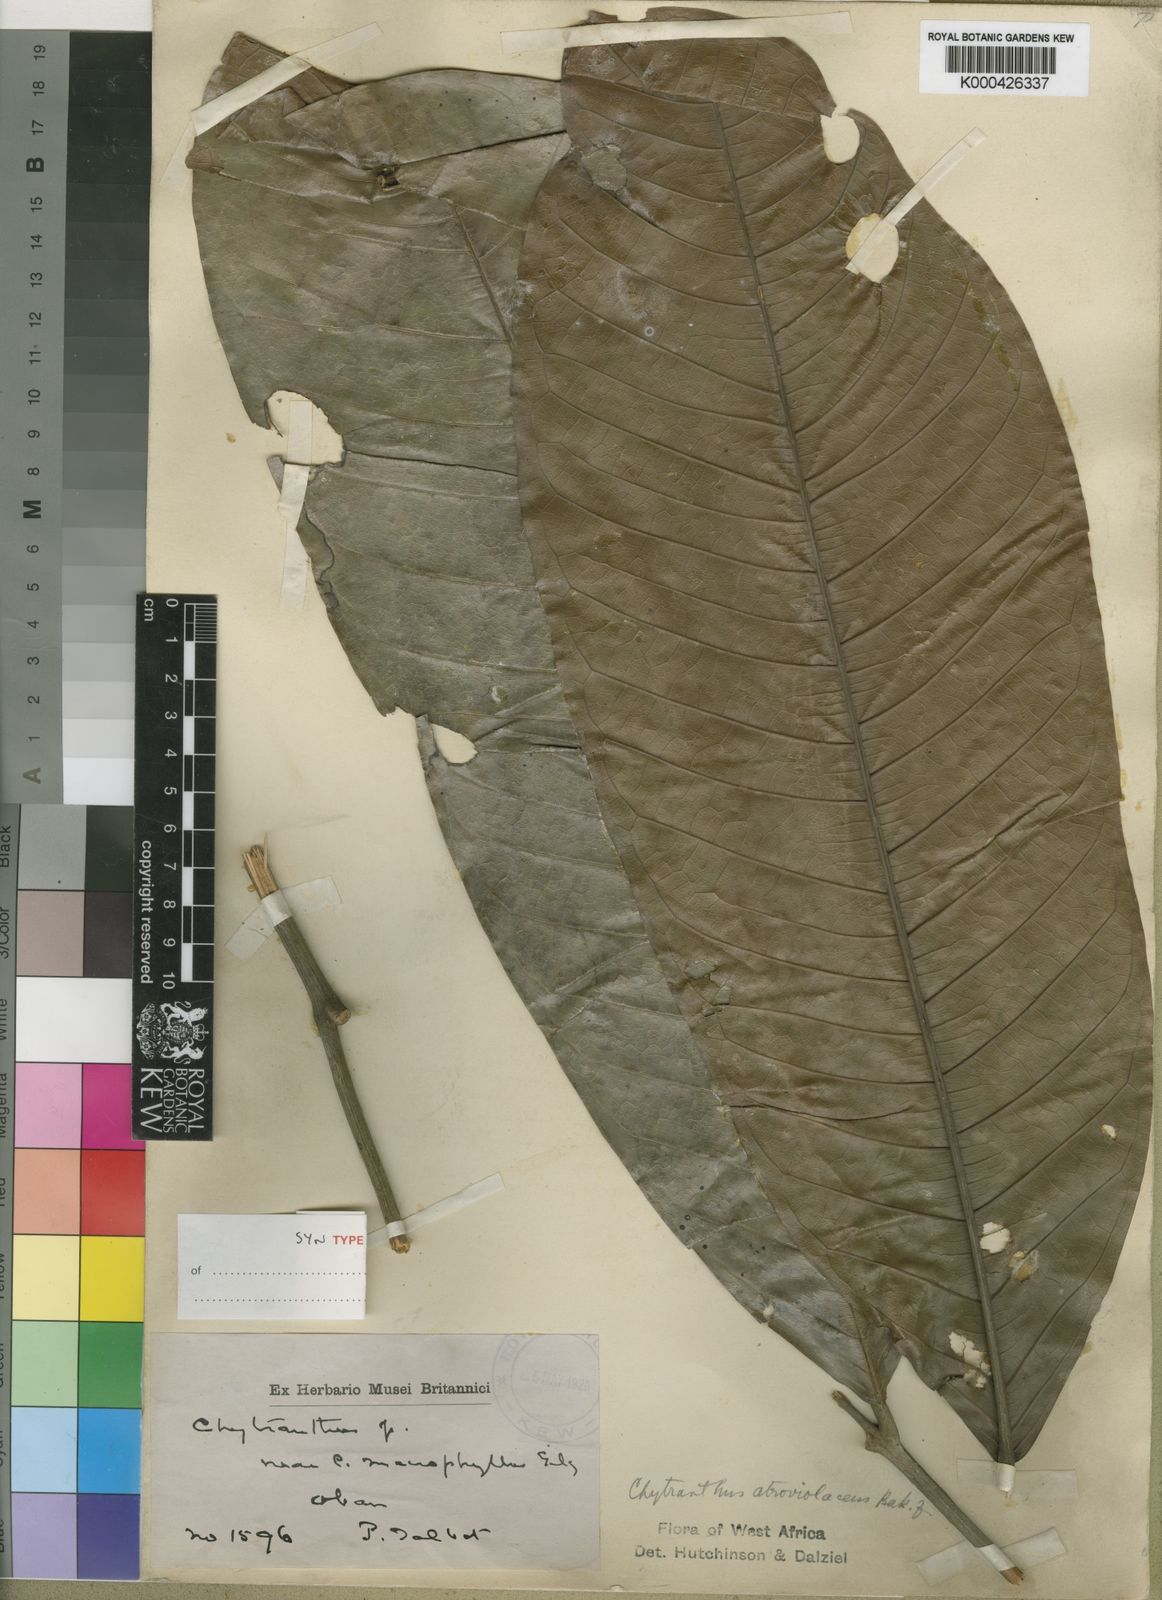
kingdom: Plantae
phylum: Tracheophyta
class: Magnoliopsida
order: Sapindales
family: Sapindaceae
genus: Chytranthus
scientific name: Chytranthus atroviolaceus
